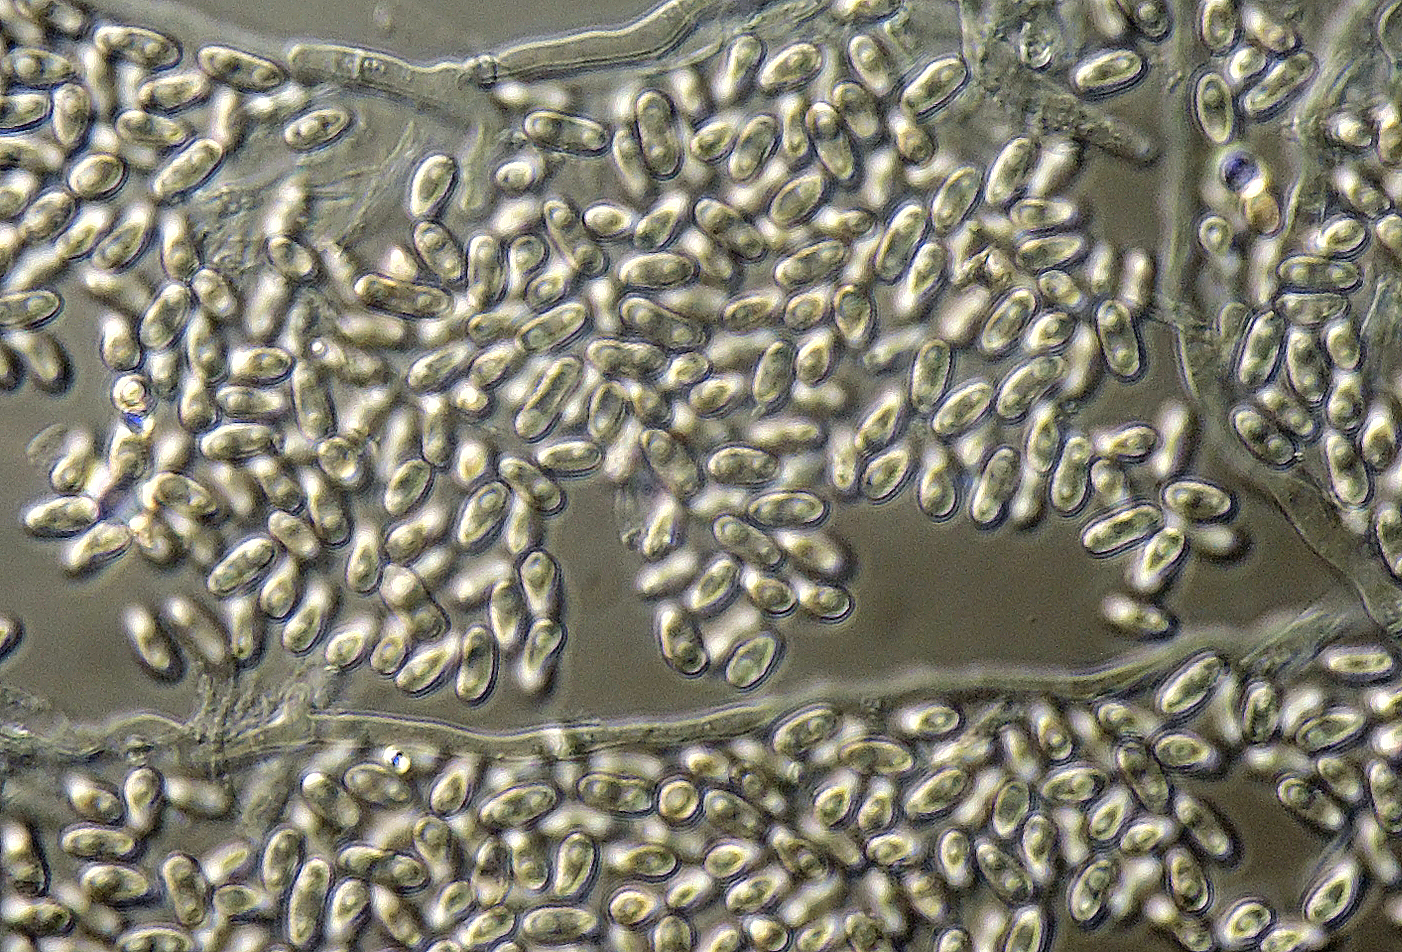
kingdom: Fungi
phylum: Ascomycota
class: Eurotiomycetes
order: Onygenales
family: Onygenaceae
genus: Onygena
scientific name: Onygena corvina
